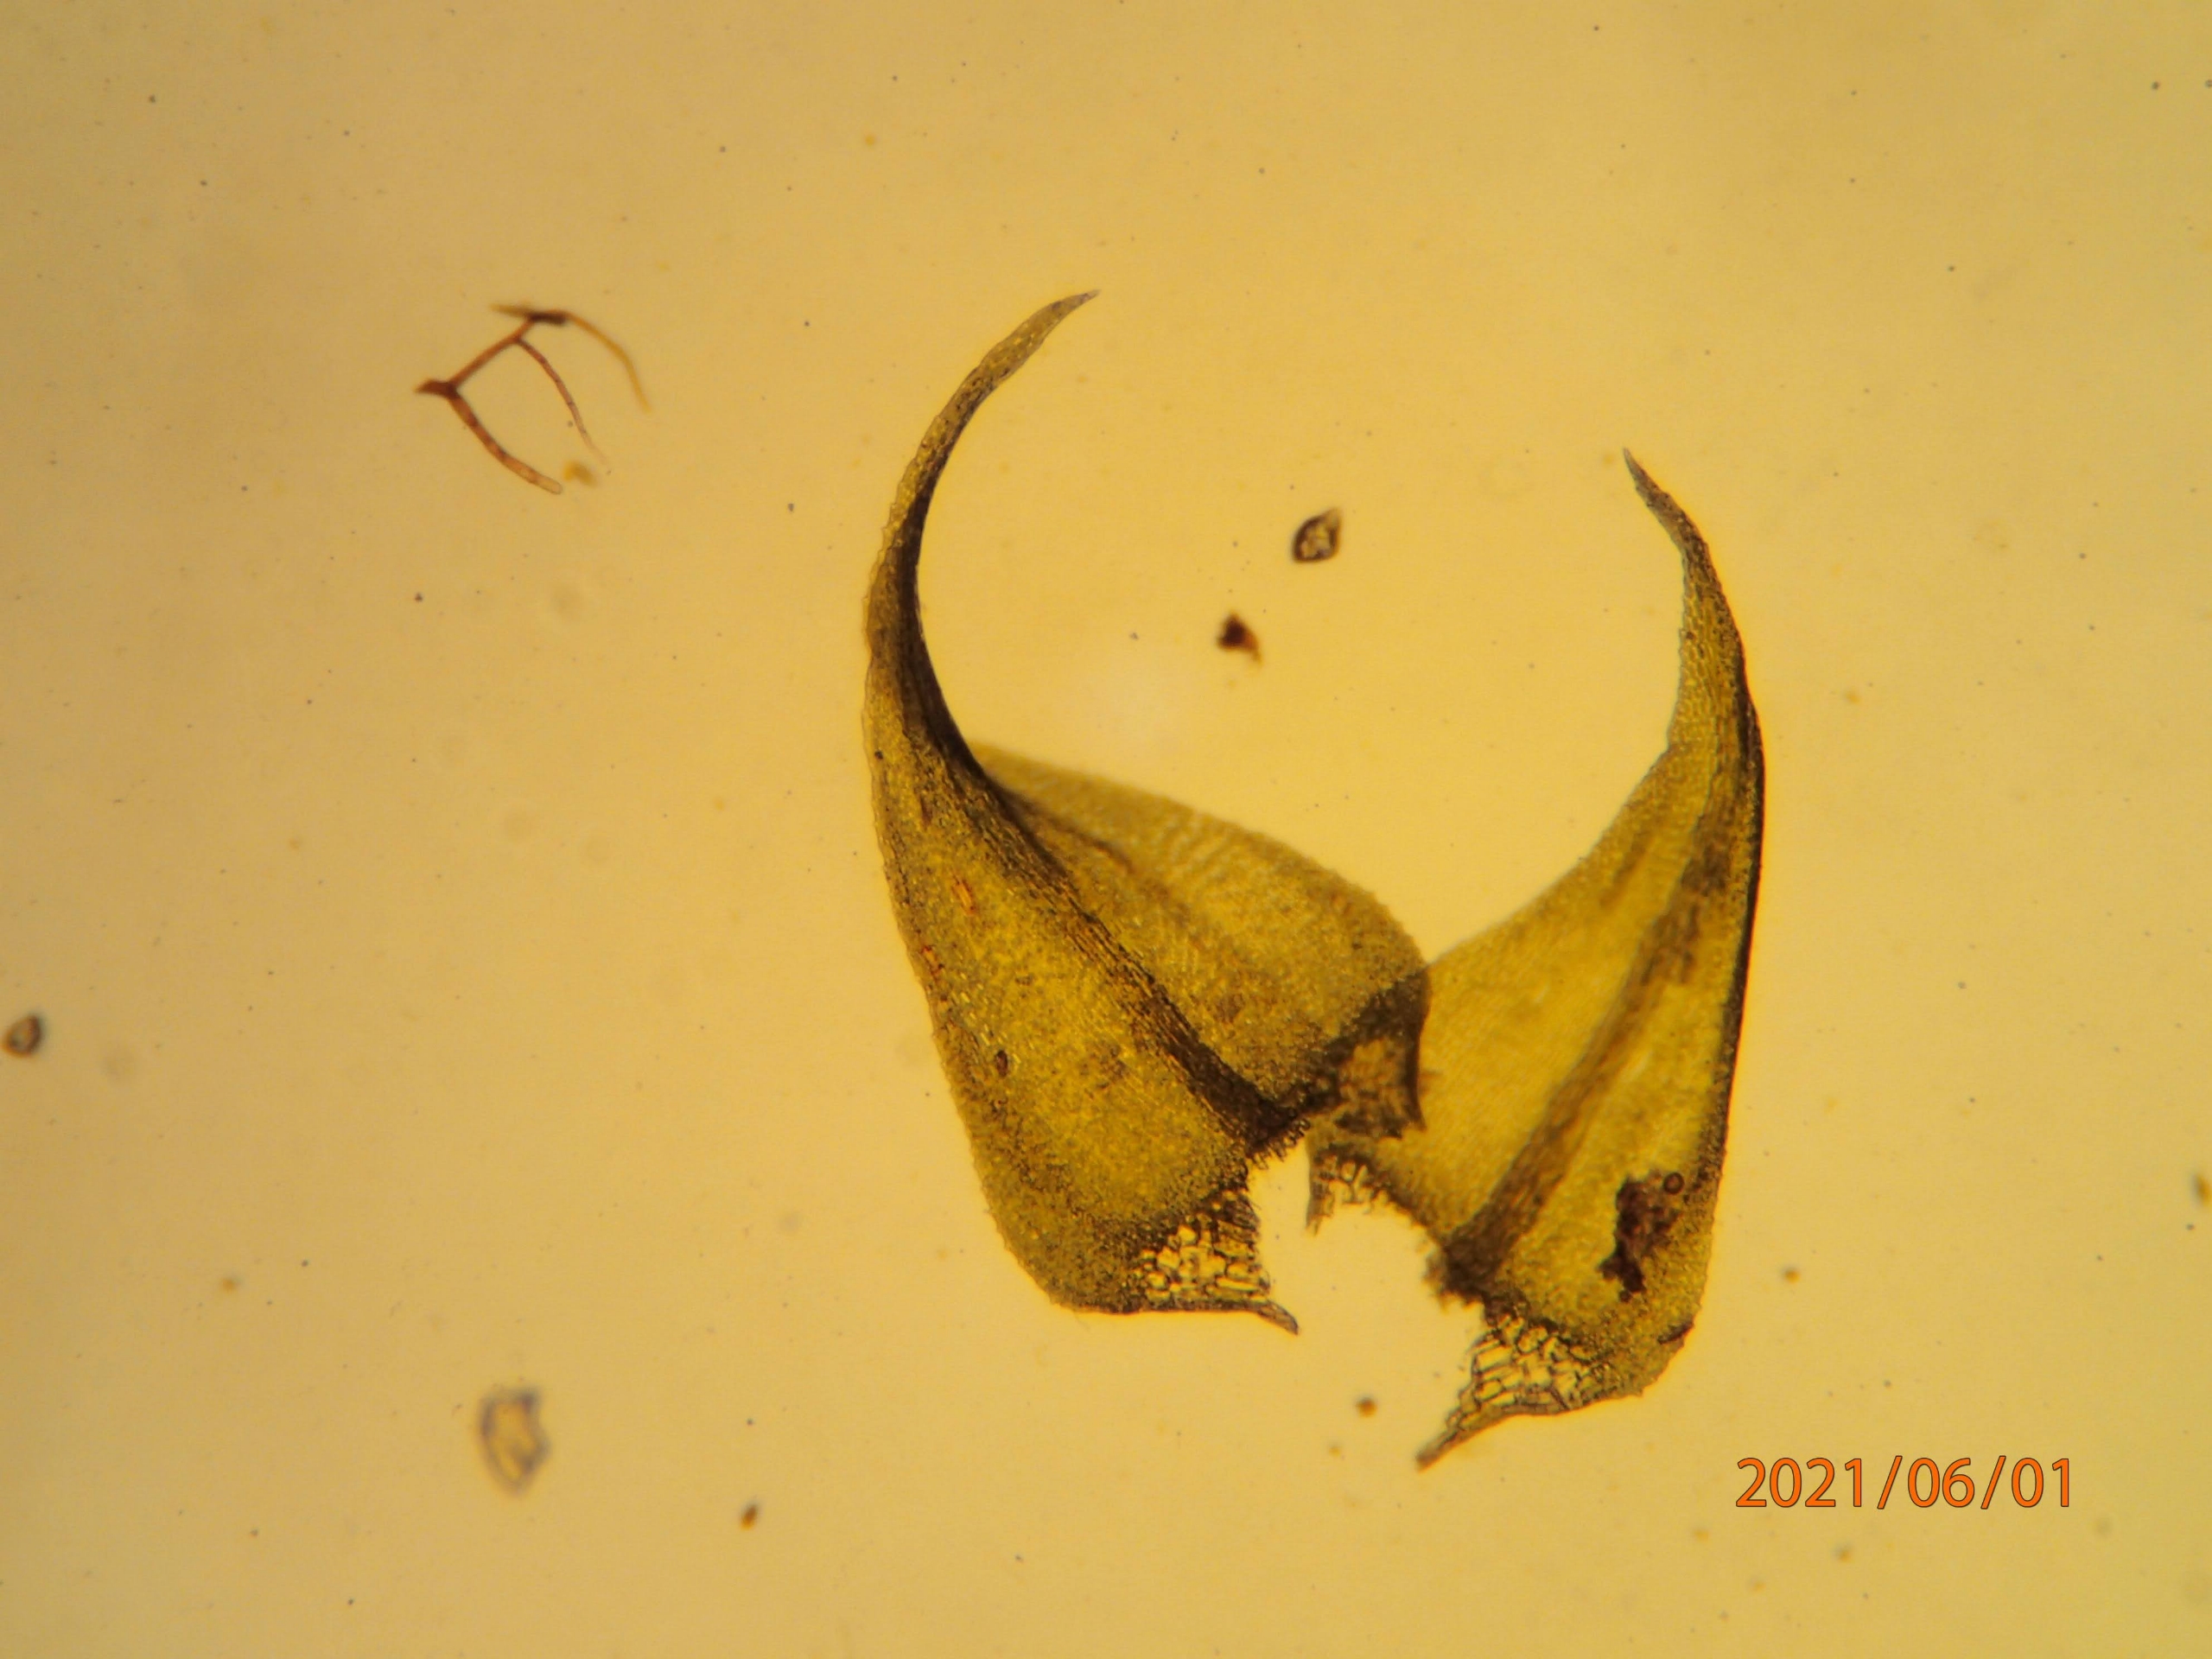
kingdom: Plantae
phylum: Bryophyta
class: Bryopsida
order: Hypnales
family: Amblystegiaceae
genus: Cratoneuron
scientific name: Cratoneuron filicinum
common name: Grøn eremitmos
